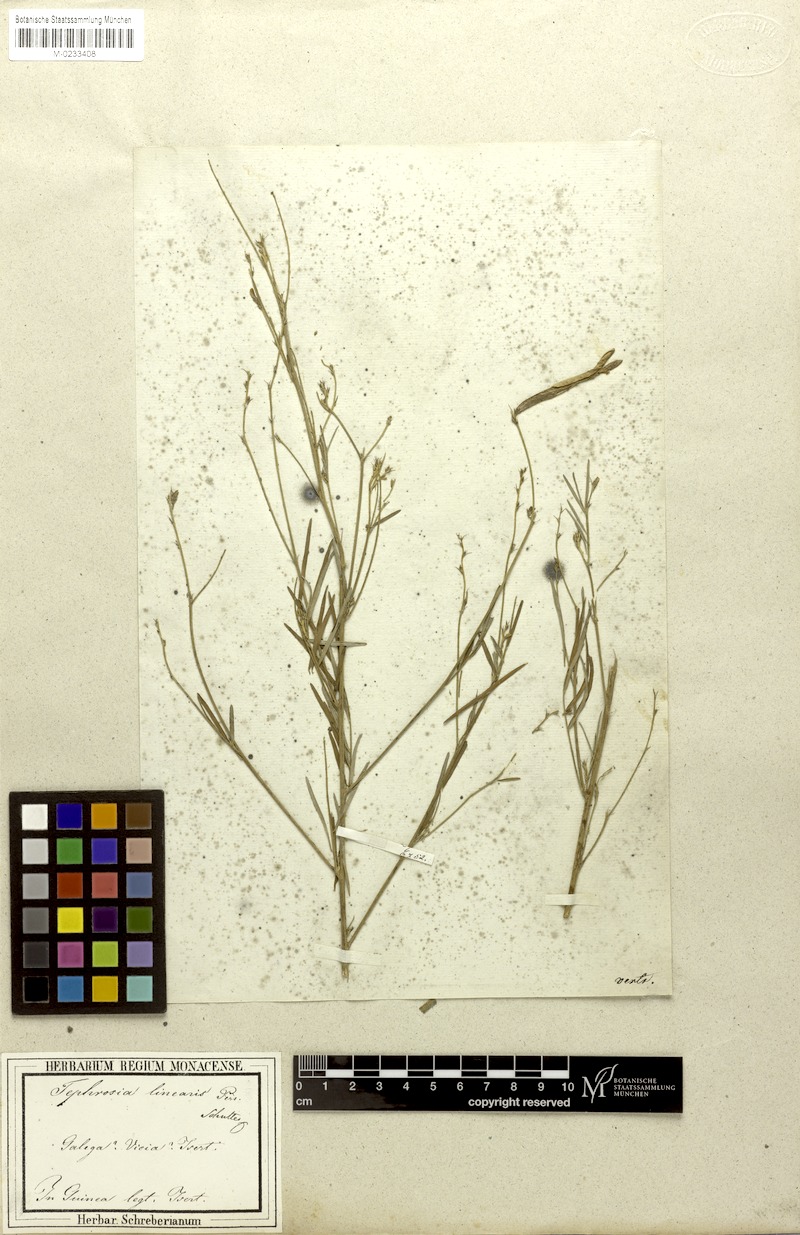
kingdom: Plantae
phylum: Tracheophyta
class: Magnoliopsida
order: Fabales
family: Fabaceae
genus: Tephrosia
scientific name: Tephrosia linearis
